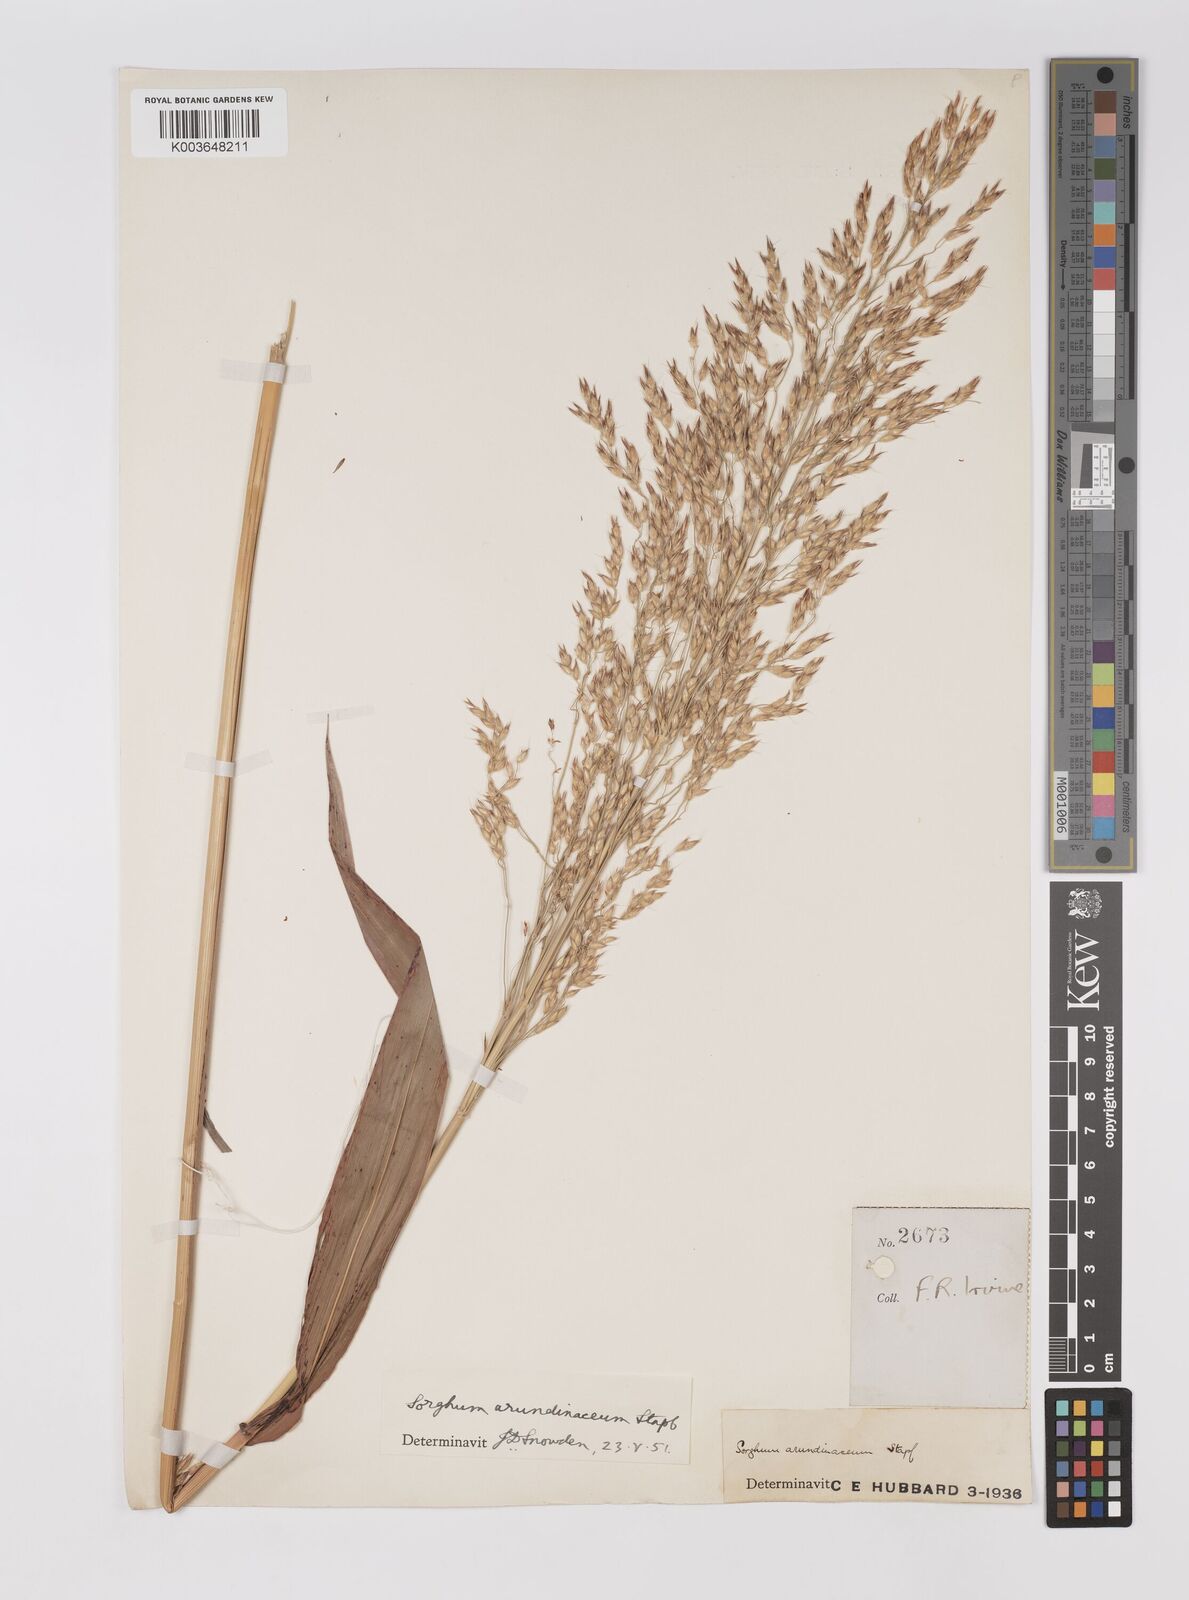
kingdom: Plantae
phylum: Tracheophyta
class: Liliopsida
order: Poales
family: Poaceae
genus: Sorghum
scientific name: Sorghum arundinaceum
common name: Sorghum
